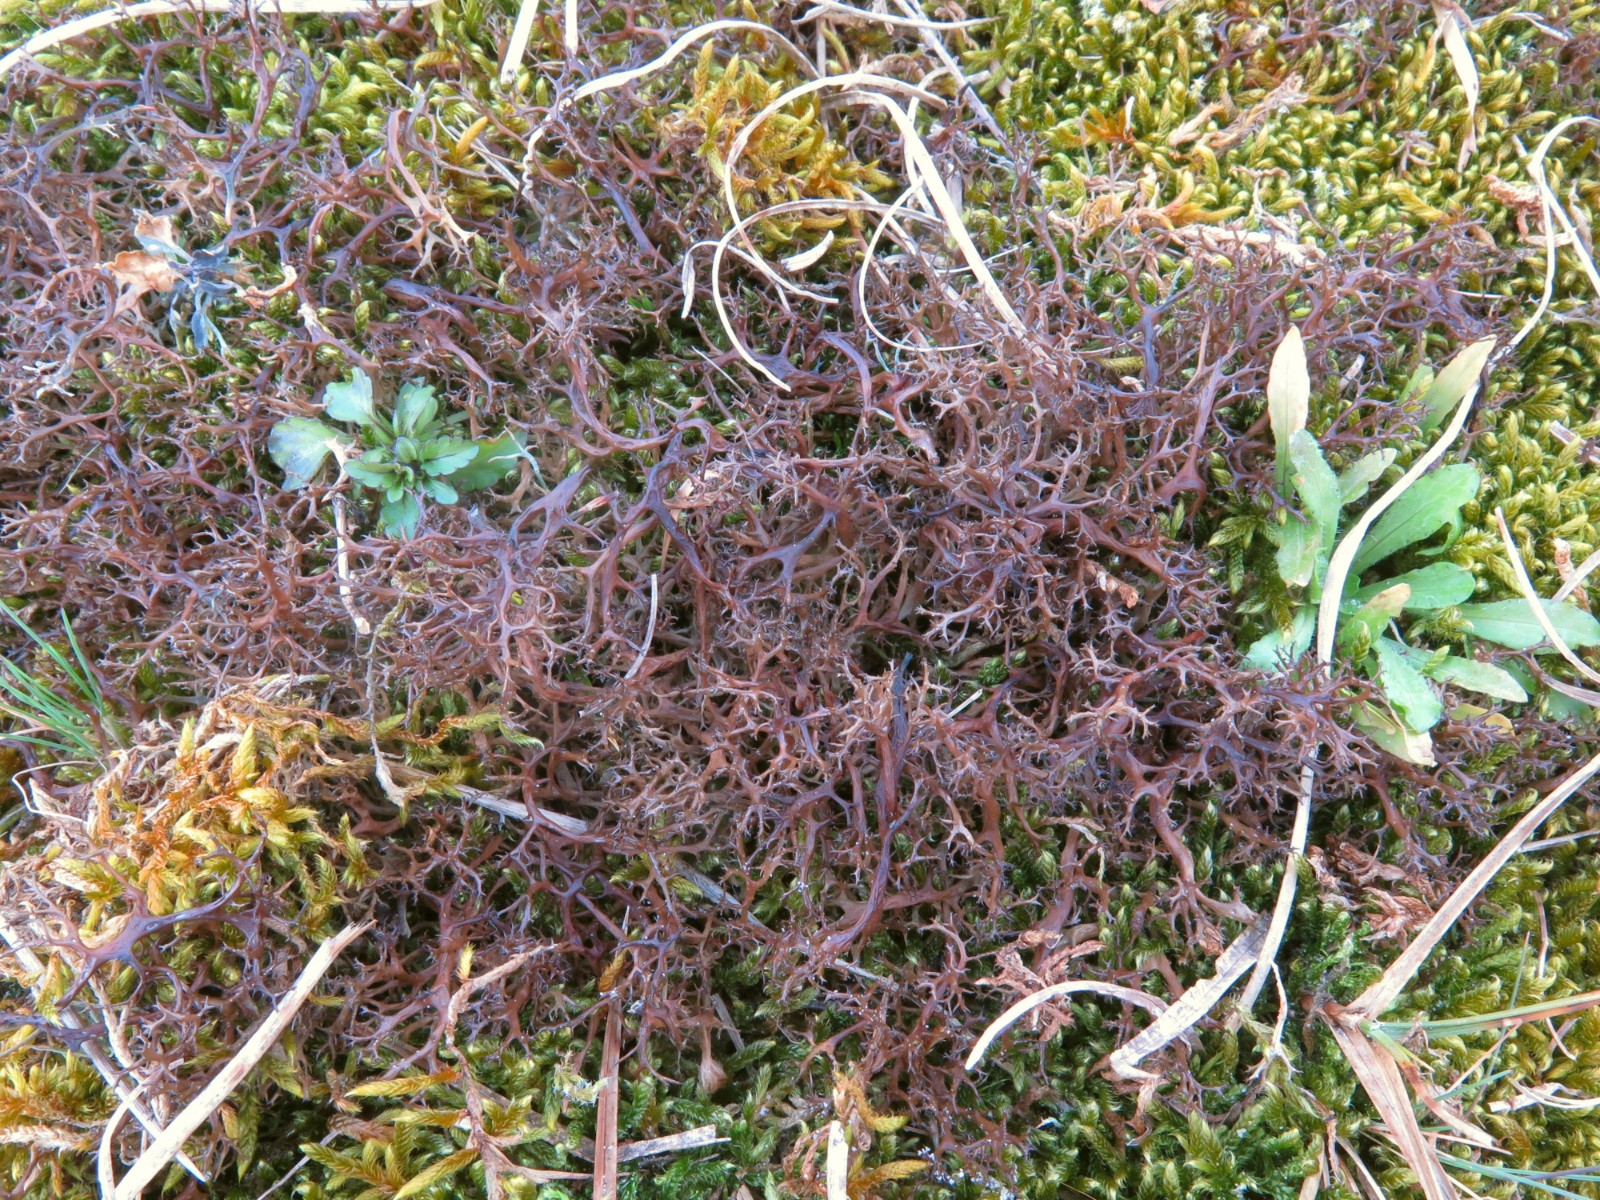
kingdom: Fungi
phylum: Ascomycota
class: Lecanoromycetes
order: Lecanorales
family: Parmeliaceae
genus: Cetraria
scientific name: Cetraria aculeata
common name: grubet tjørnelav
